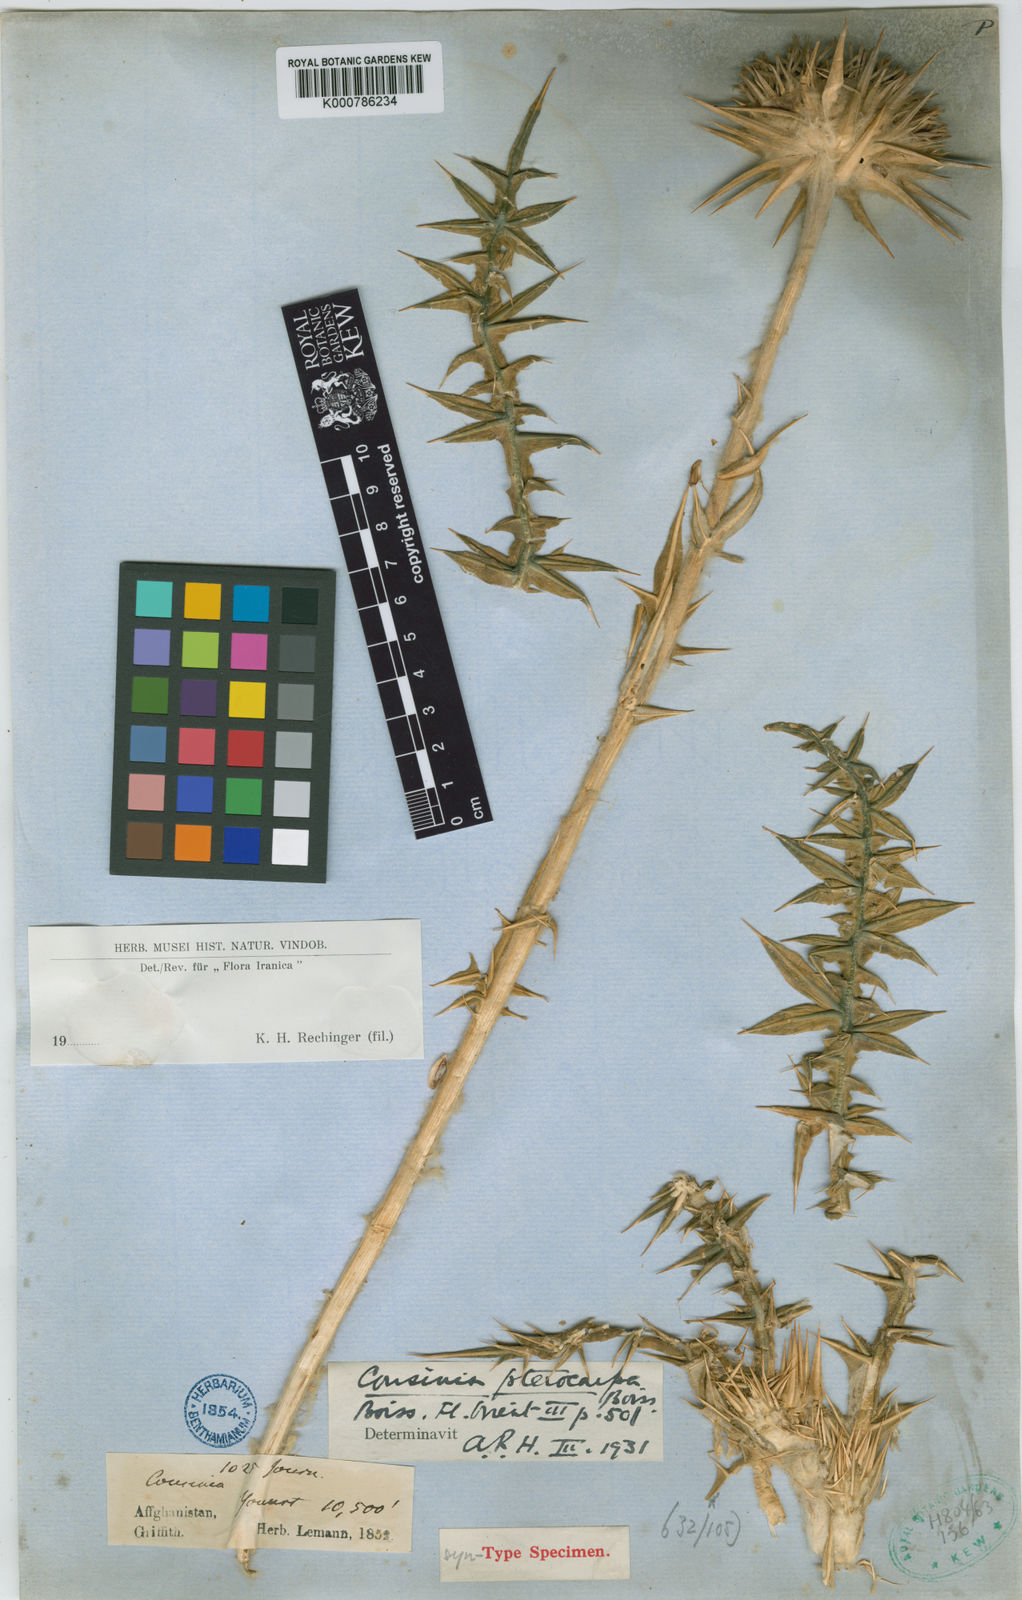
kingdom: Plantae
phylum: Tracheophyta
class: Magnoliopsida
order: Asterales
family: Asteraceae
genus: Cousinia
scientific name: Cousinia pterocarpa
